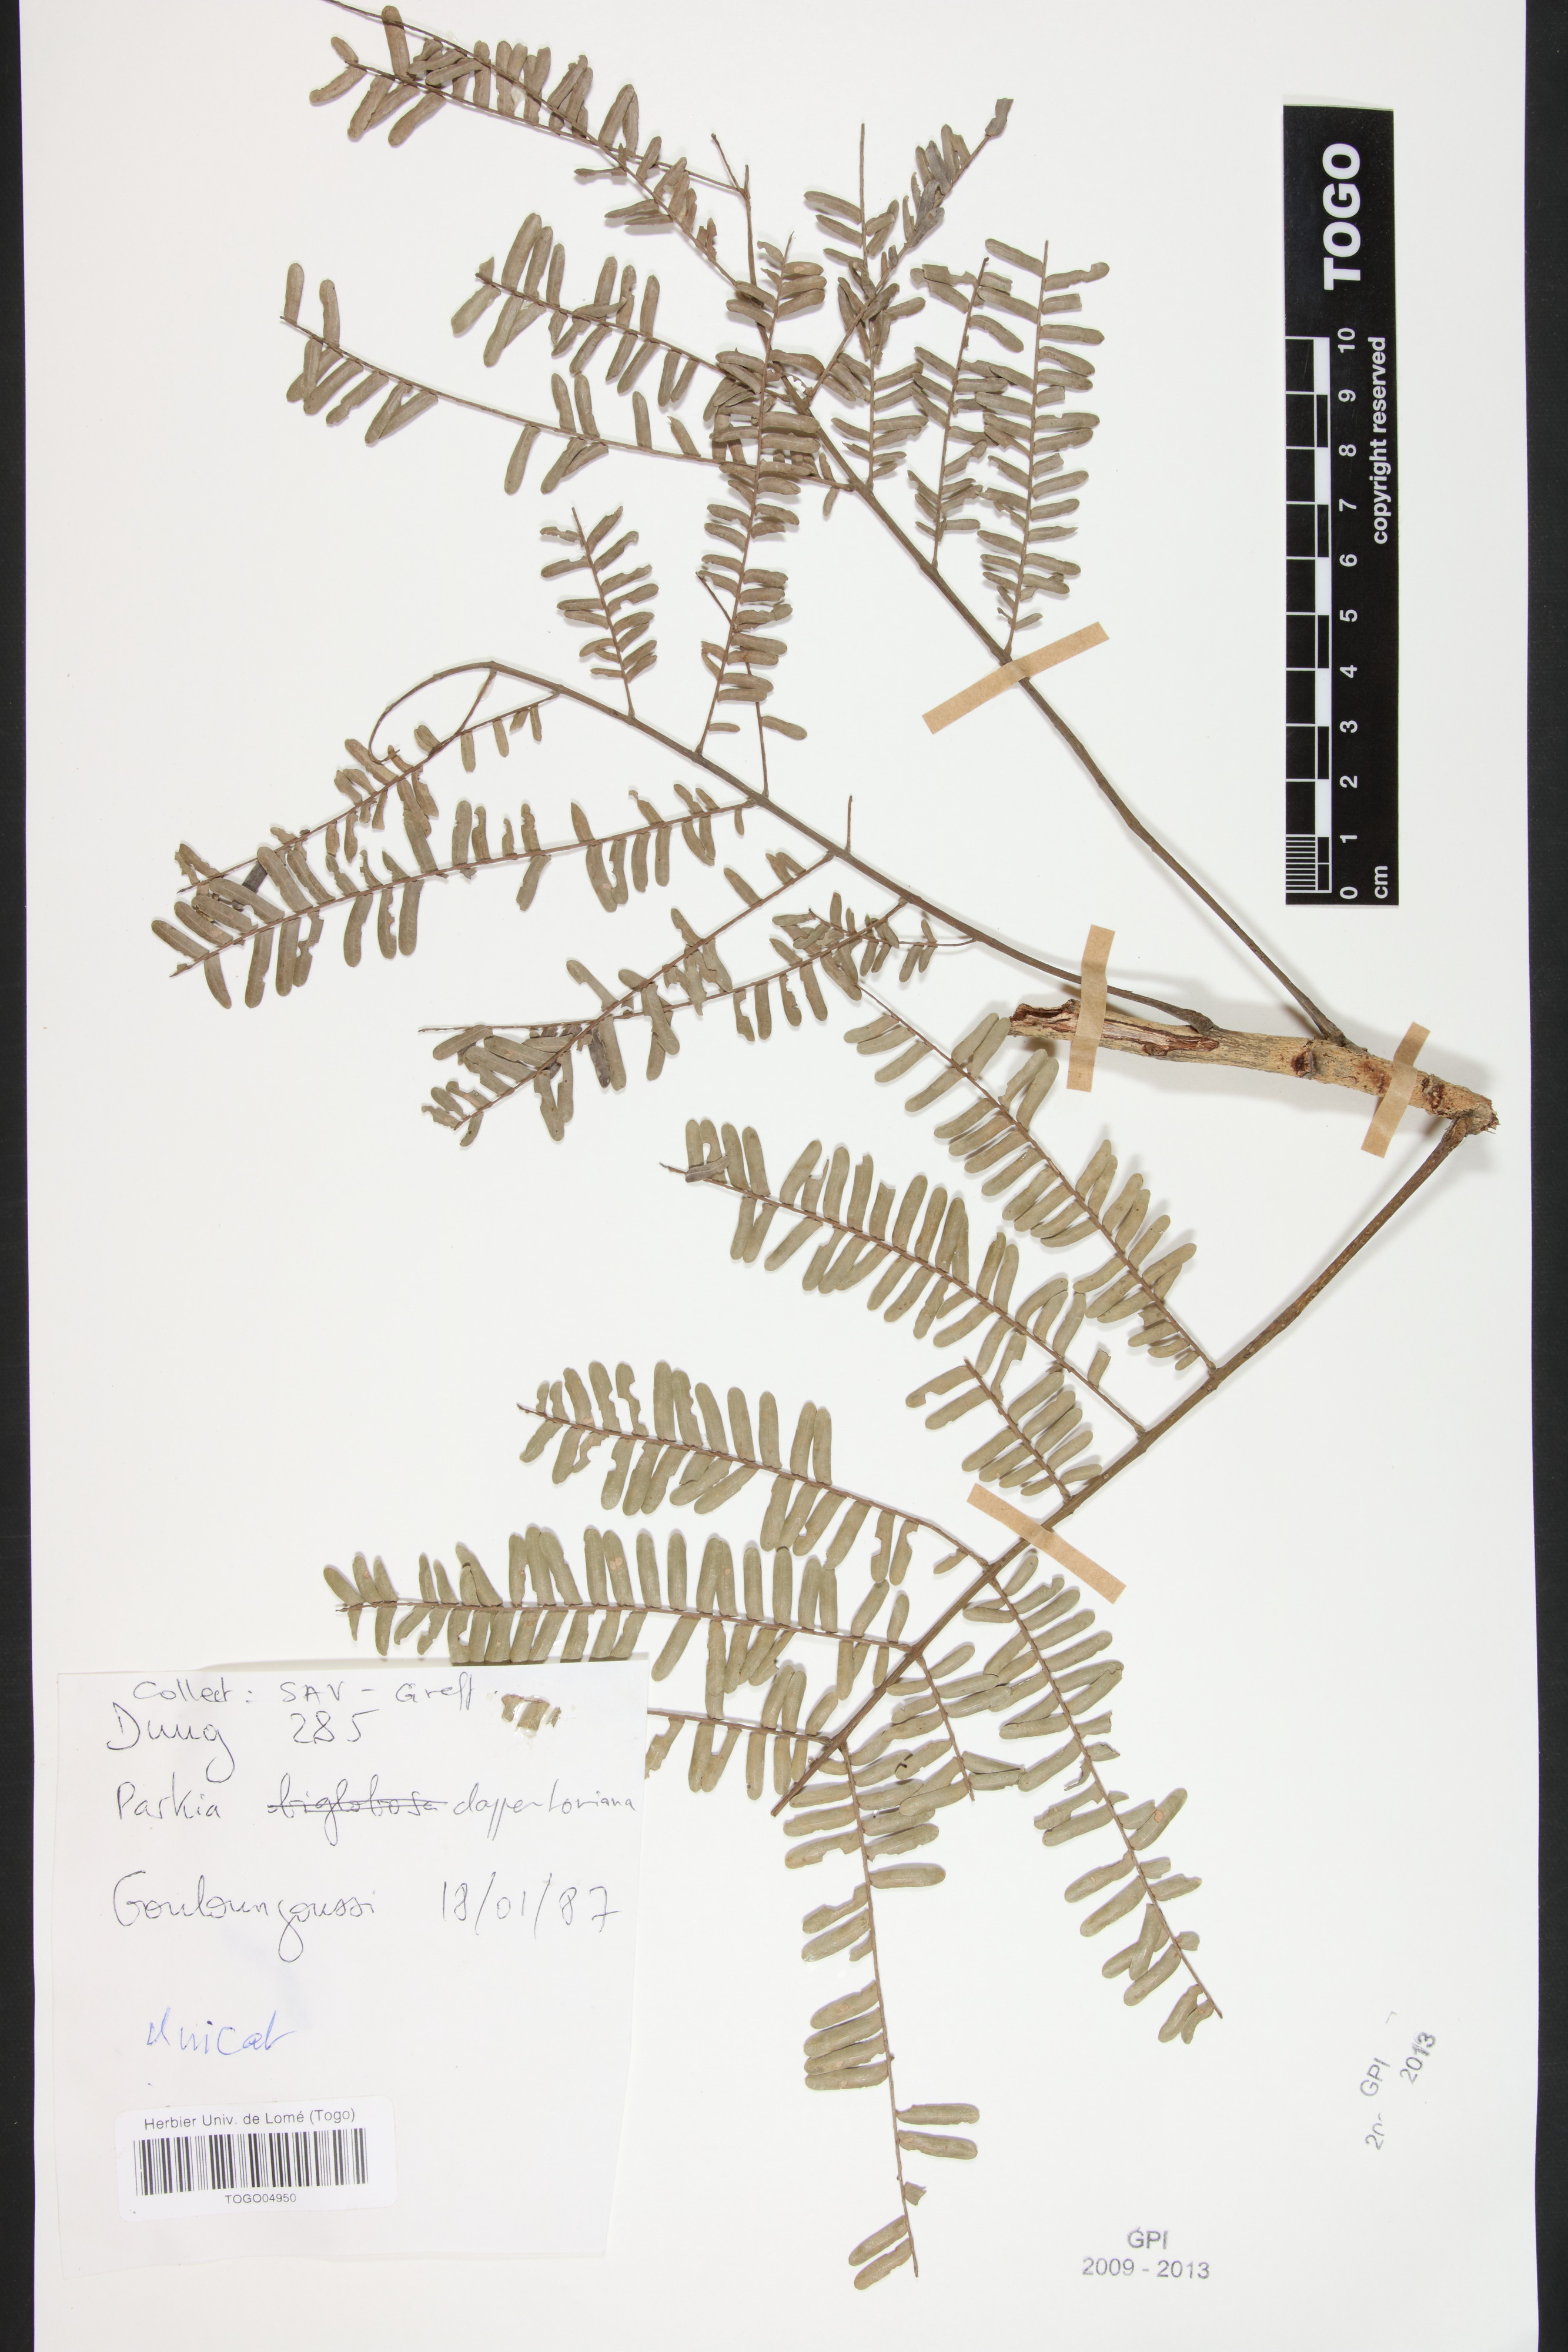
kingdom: Plantae
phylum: Tracheophyta
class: Magnoliopsida
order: Fabales
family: Fabaceae
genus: Parkia
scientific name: Parkia biglobosa
